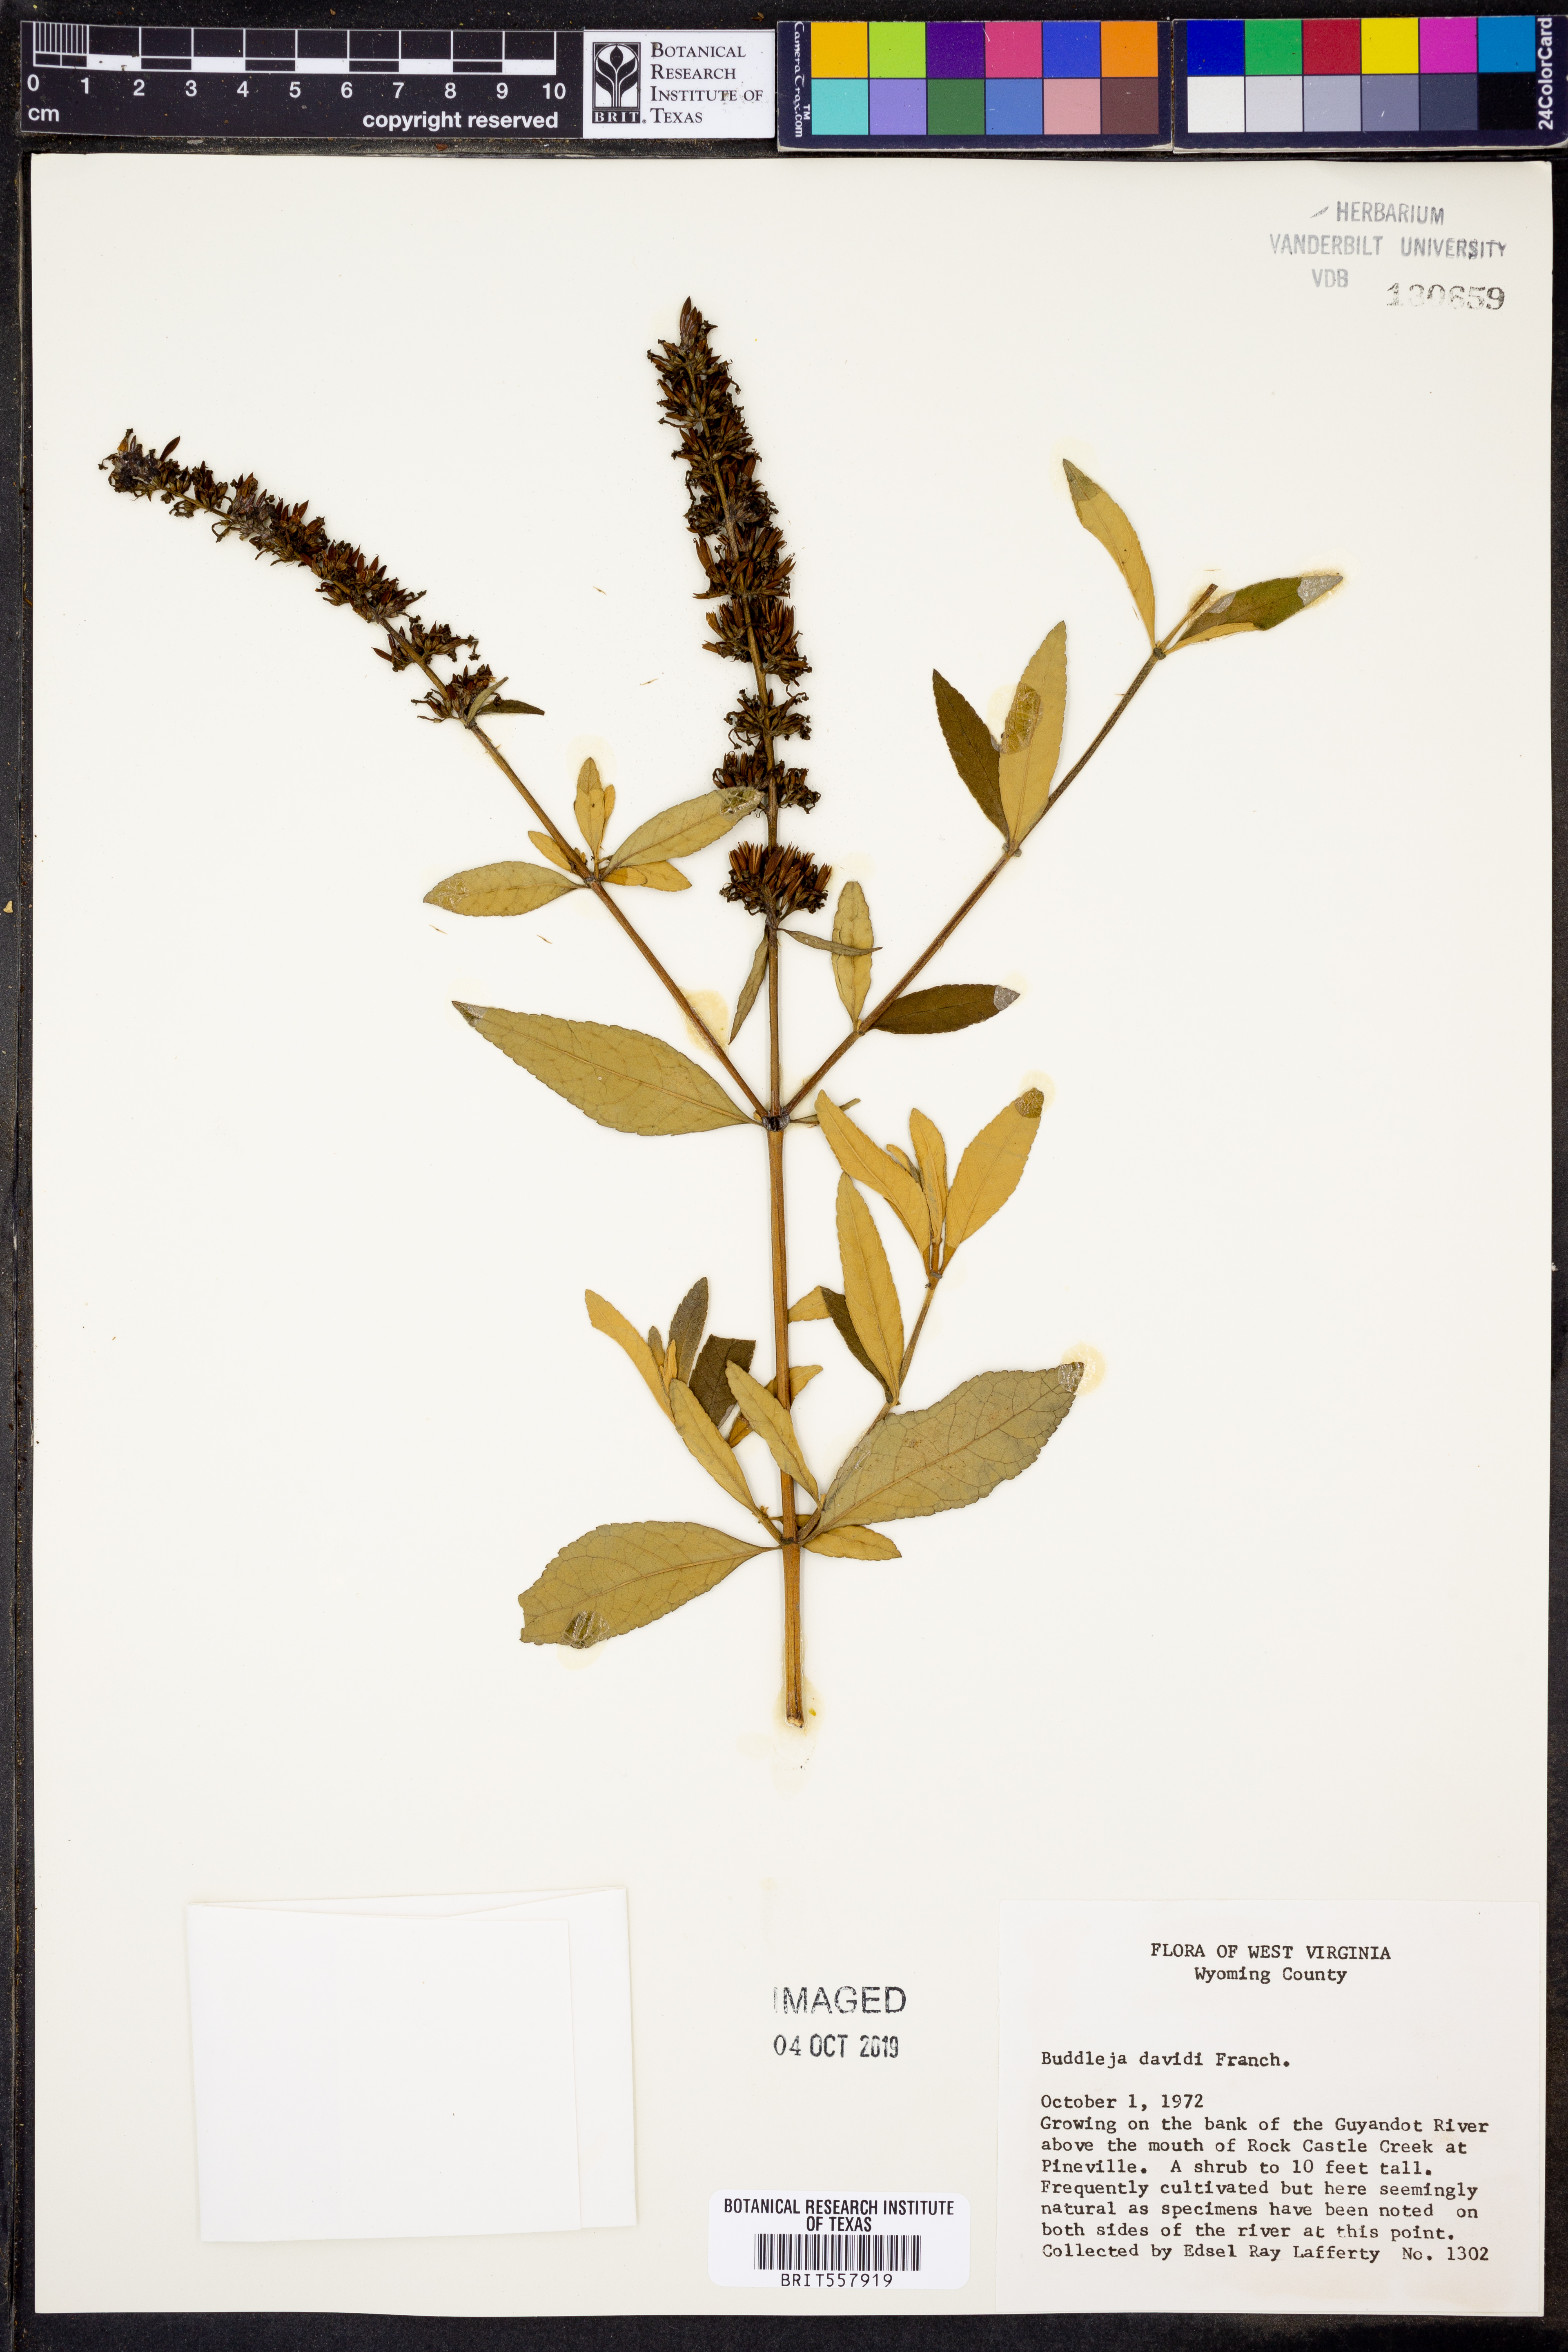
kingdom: Plantae
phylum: Tracheophyta
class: Magnoliopsida
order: Lamiales
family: Scrophulariaceae
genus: Buddleja
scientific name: Buddleja davidii
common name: Butterfly-bush
